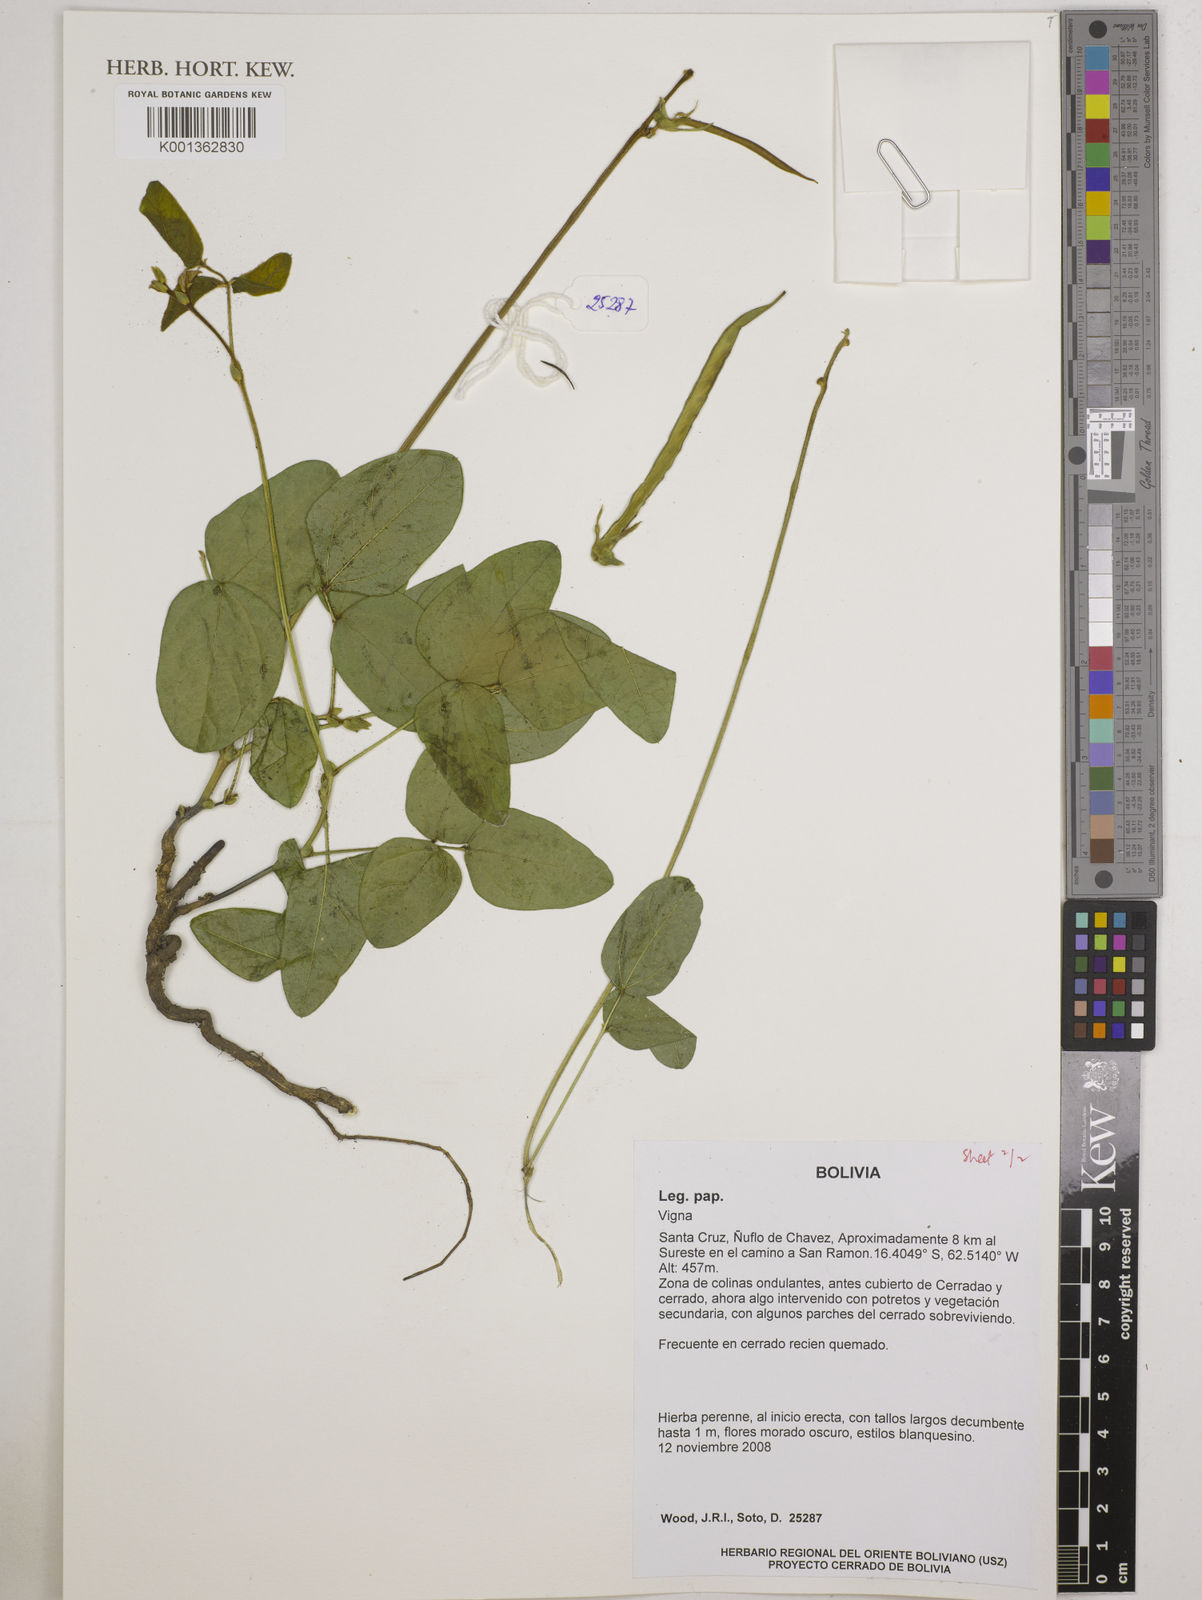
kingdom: Plantae
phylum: Tracheophyta
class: Magnoliopsida
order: Fabales
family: Fabaceae
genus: Vigna
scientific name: Vigna
